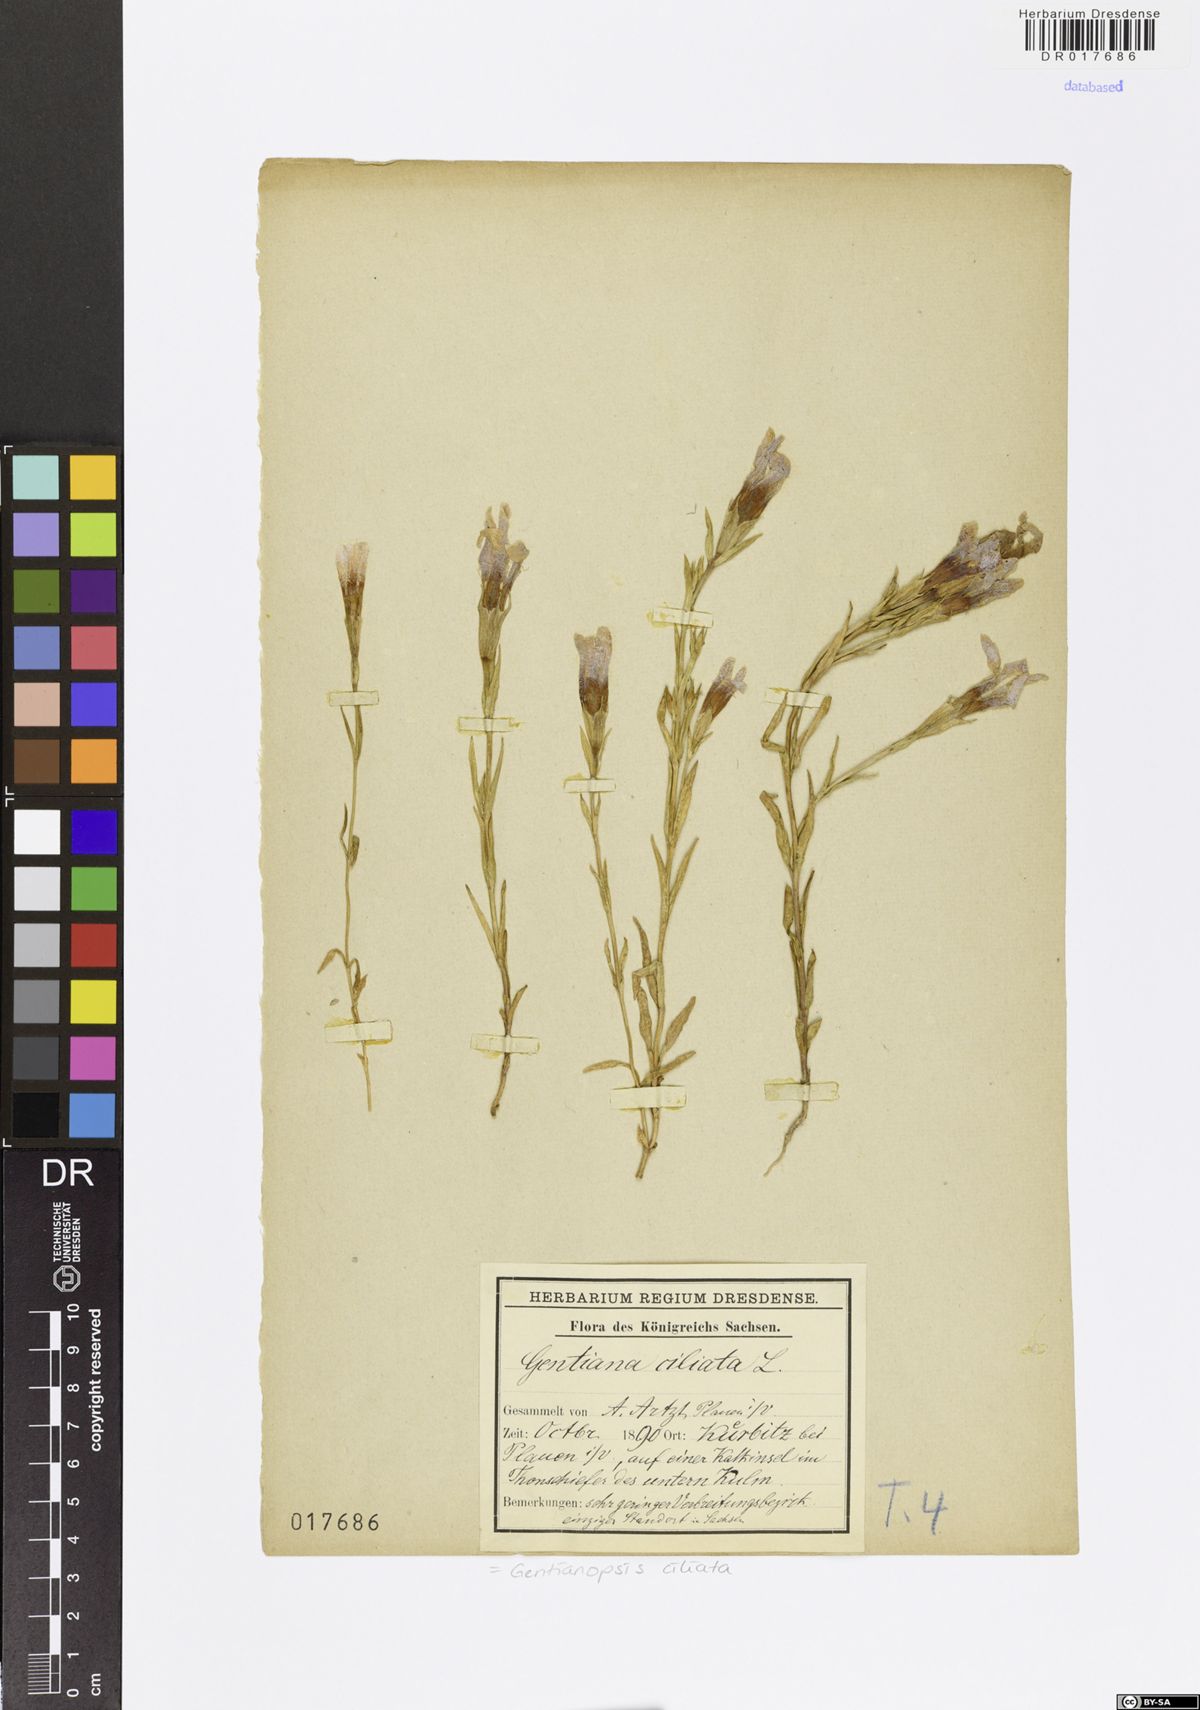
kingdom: Plantae
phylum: Tracheophyta
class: Magnoliopsida
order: Gentianales
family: Gentianaceae
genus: Gentianopsis
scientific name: Gentianopsis ciliata
